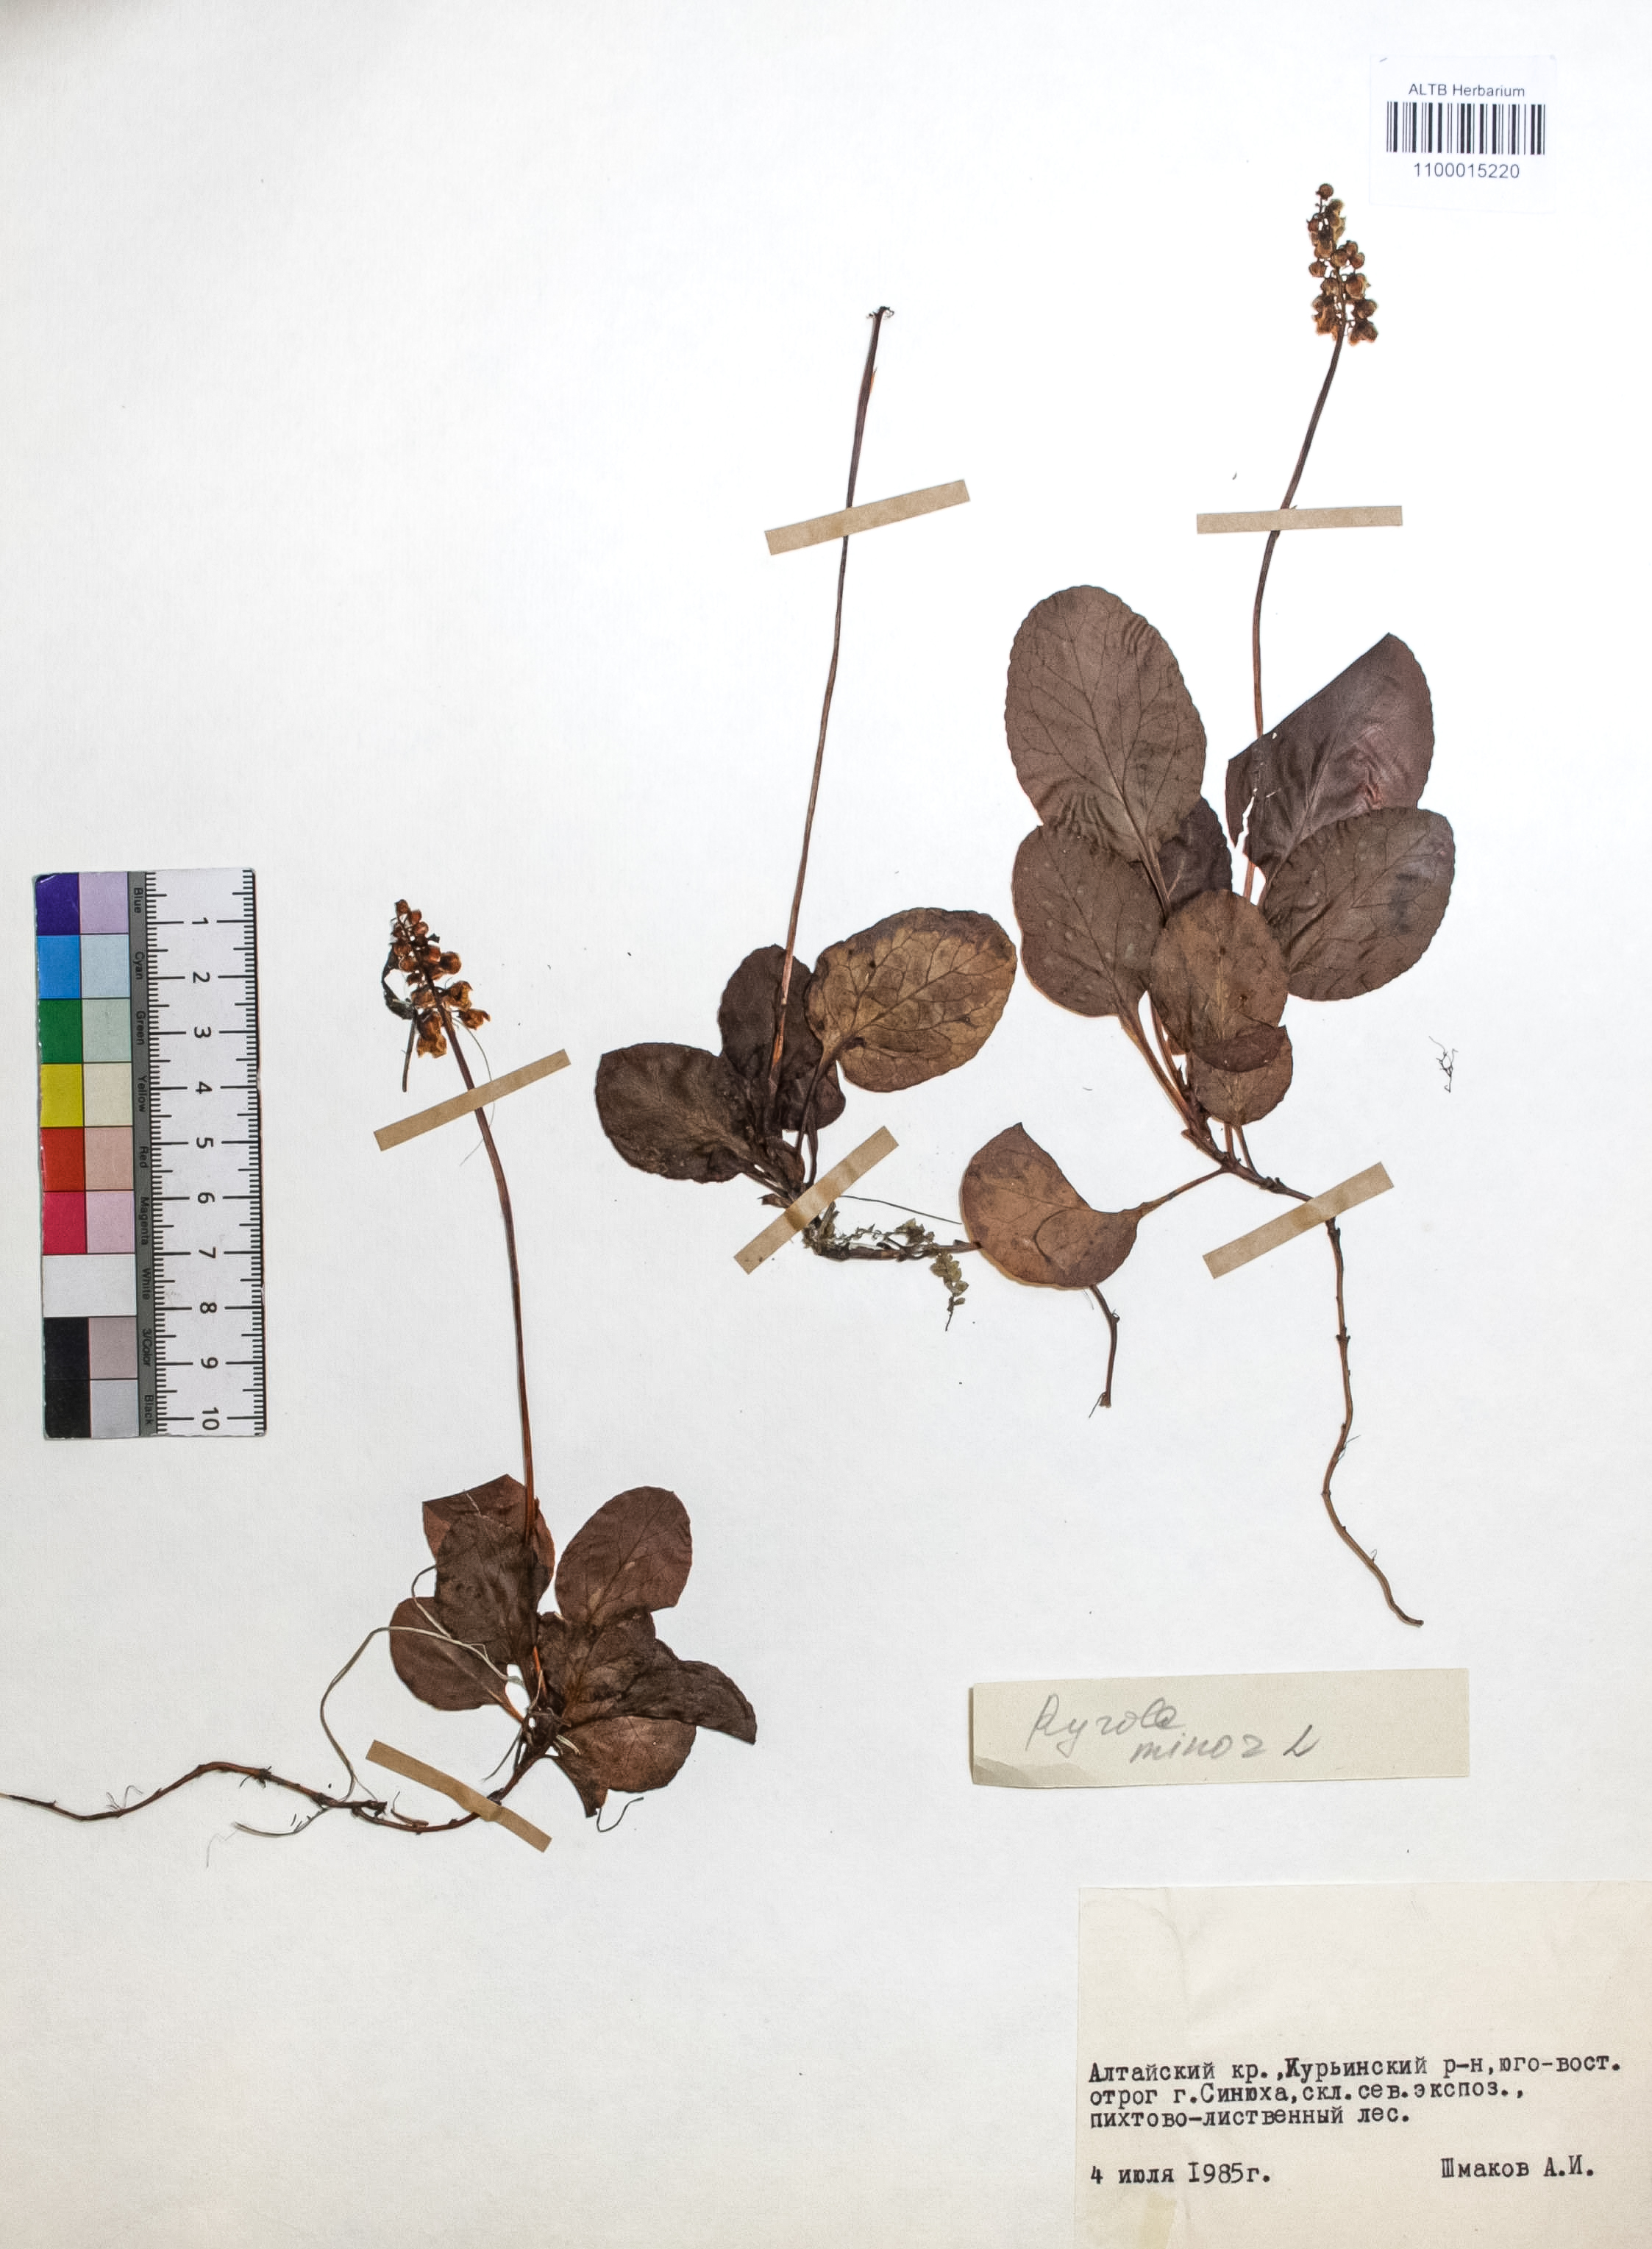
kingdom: Plantae
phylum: Tracheophyta
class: Magnoliopsida
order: Ericales
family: Ericaceae
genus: Pyrola
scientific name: Pyrola minor
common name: Common wintergreen
